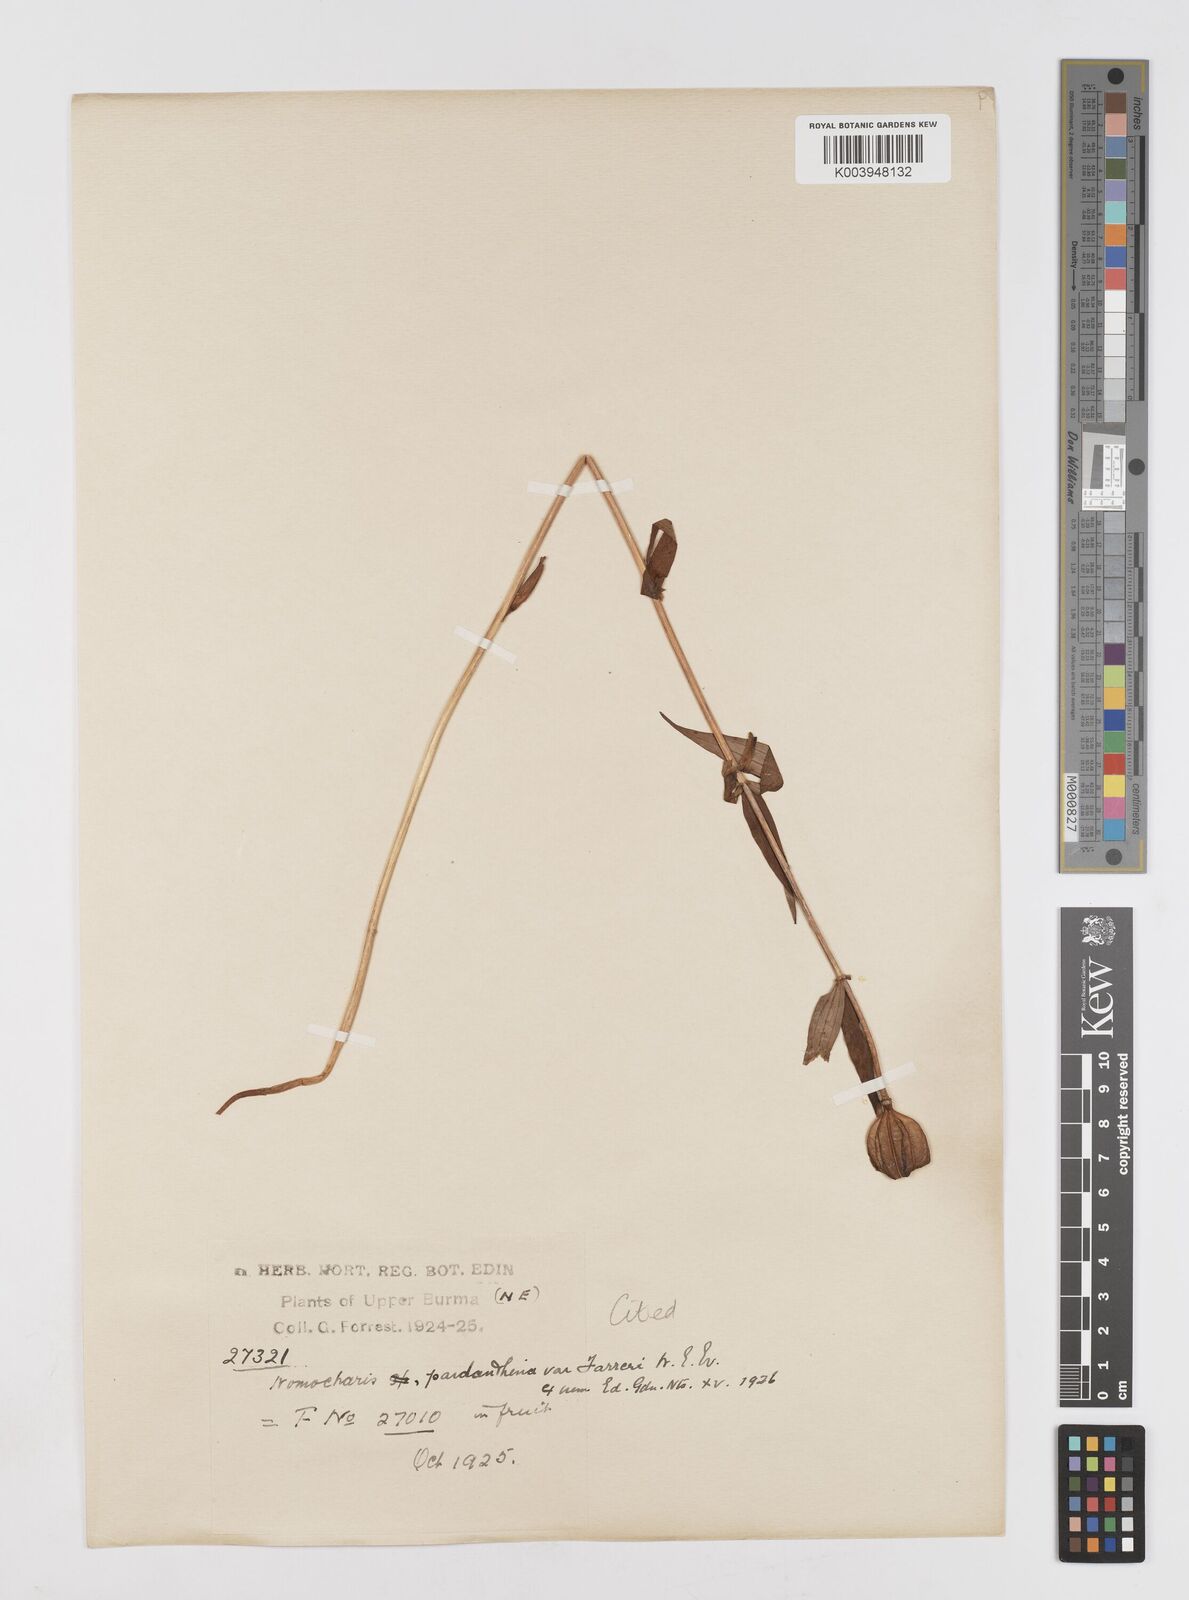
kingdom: Plantae
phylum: Tracheophyta
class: Liliopsida
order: Liliales
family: Liliaceae
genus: Lilium
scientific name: Lilium sealyi
